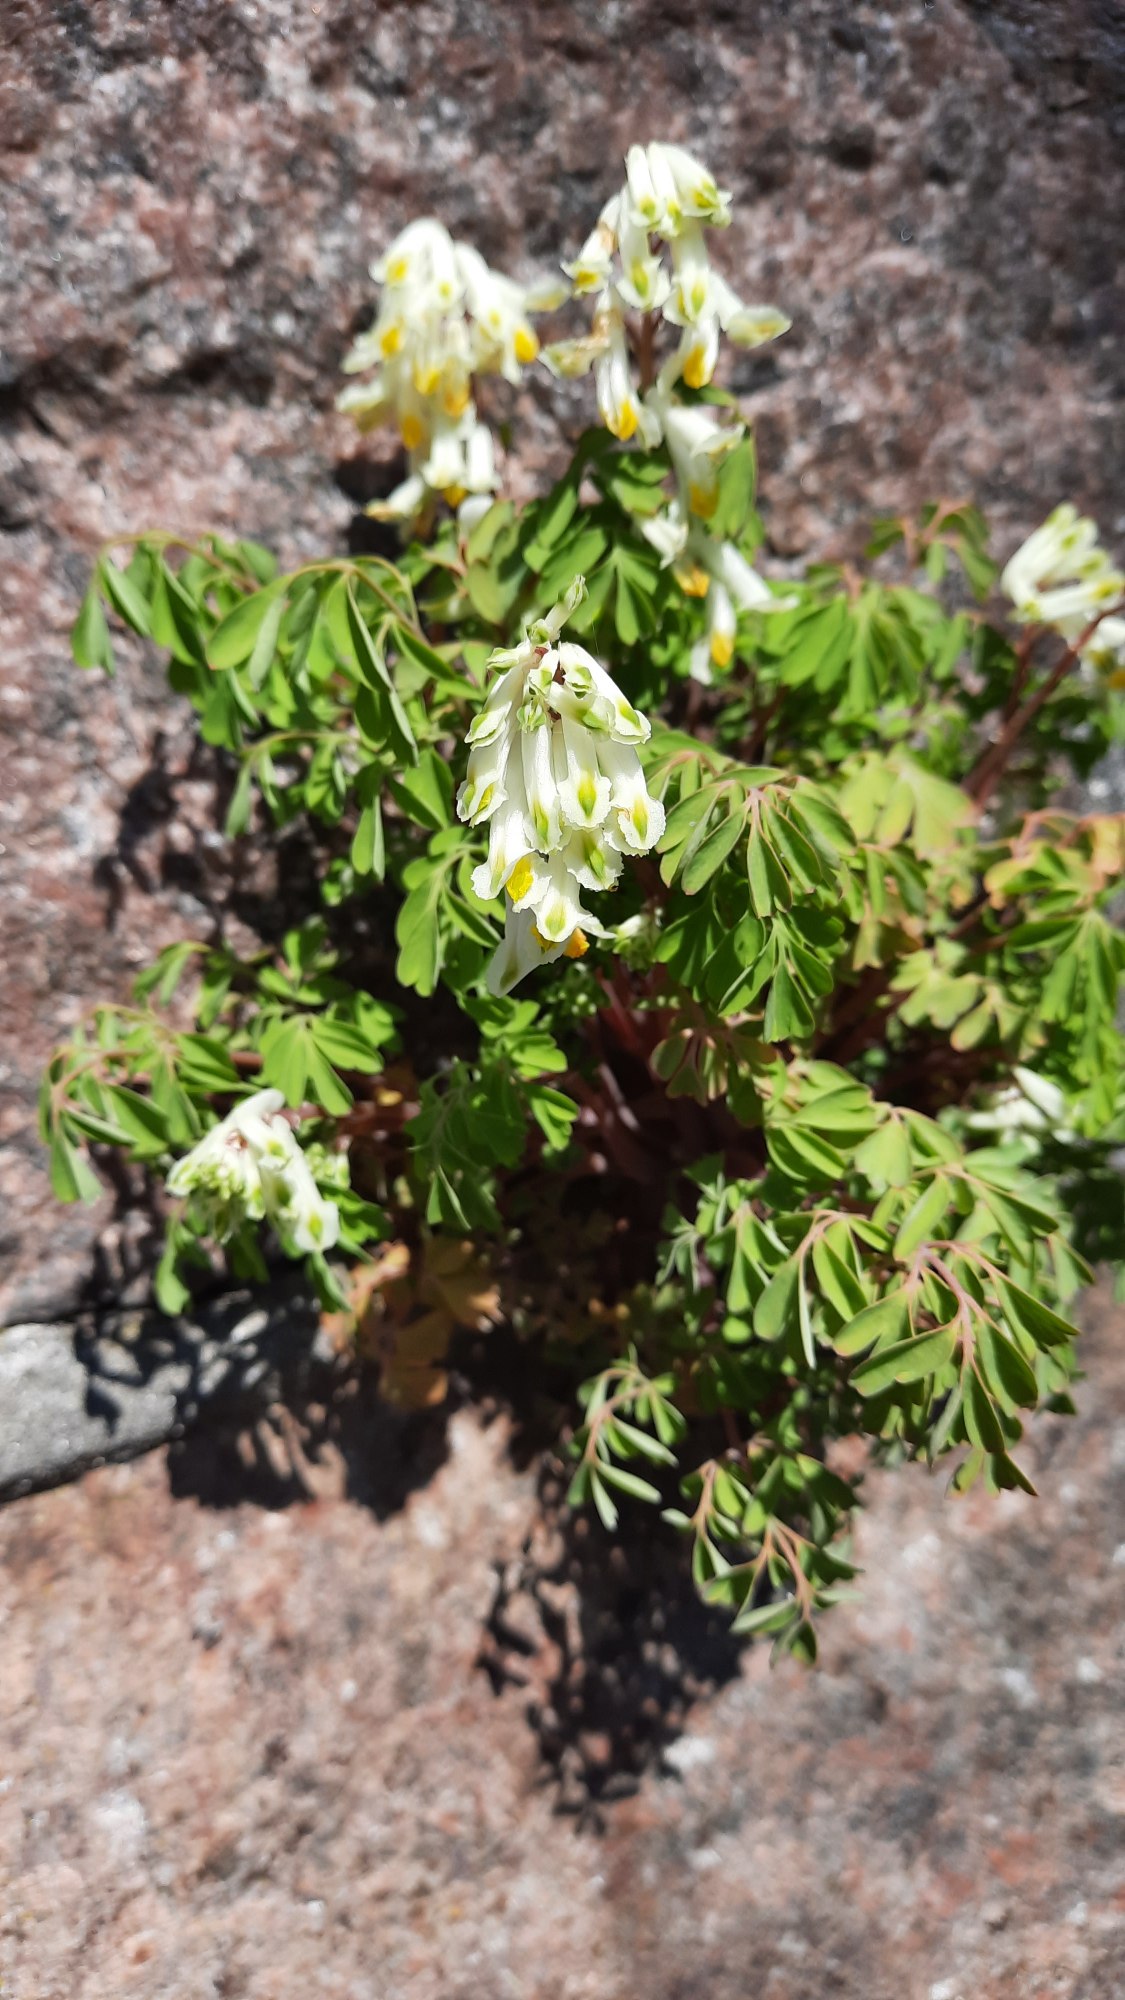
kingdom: Plantae
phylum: Tracheophyta
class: Magnoliopsida
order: Ranunculales
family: Papaveraceae
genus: Pseudofumaria
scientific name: Pseudofumaria alba
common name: Hvidgul lærkespore
